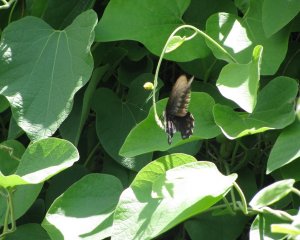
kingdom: Animalia
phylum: Arthropoda
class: Insecta
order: Lepidoptera
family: Papilionidae
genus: Battus
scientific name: Battus philenor
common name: Pipevine Swallowtail
